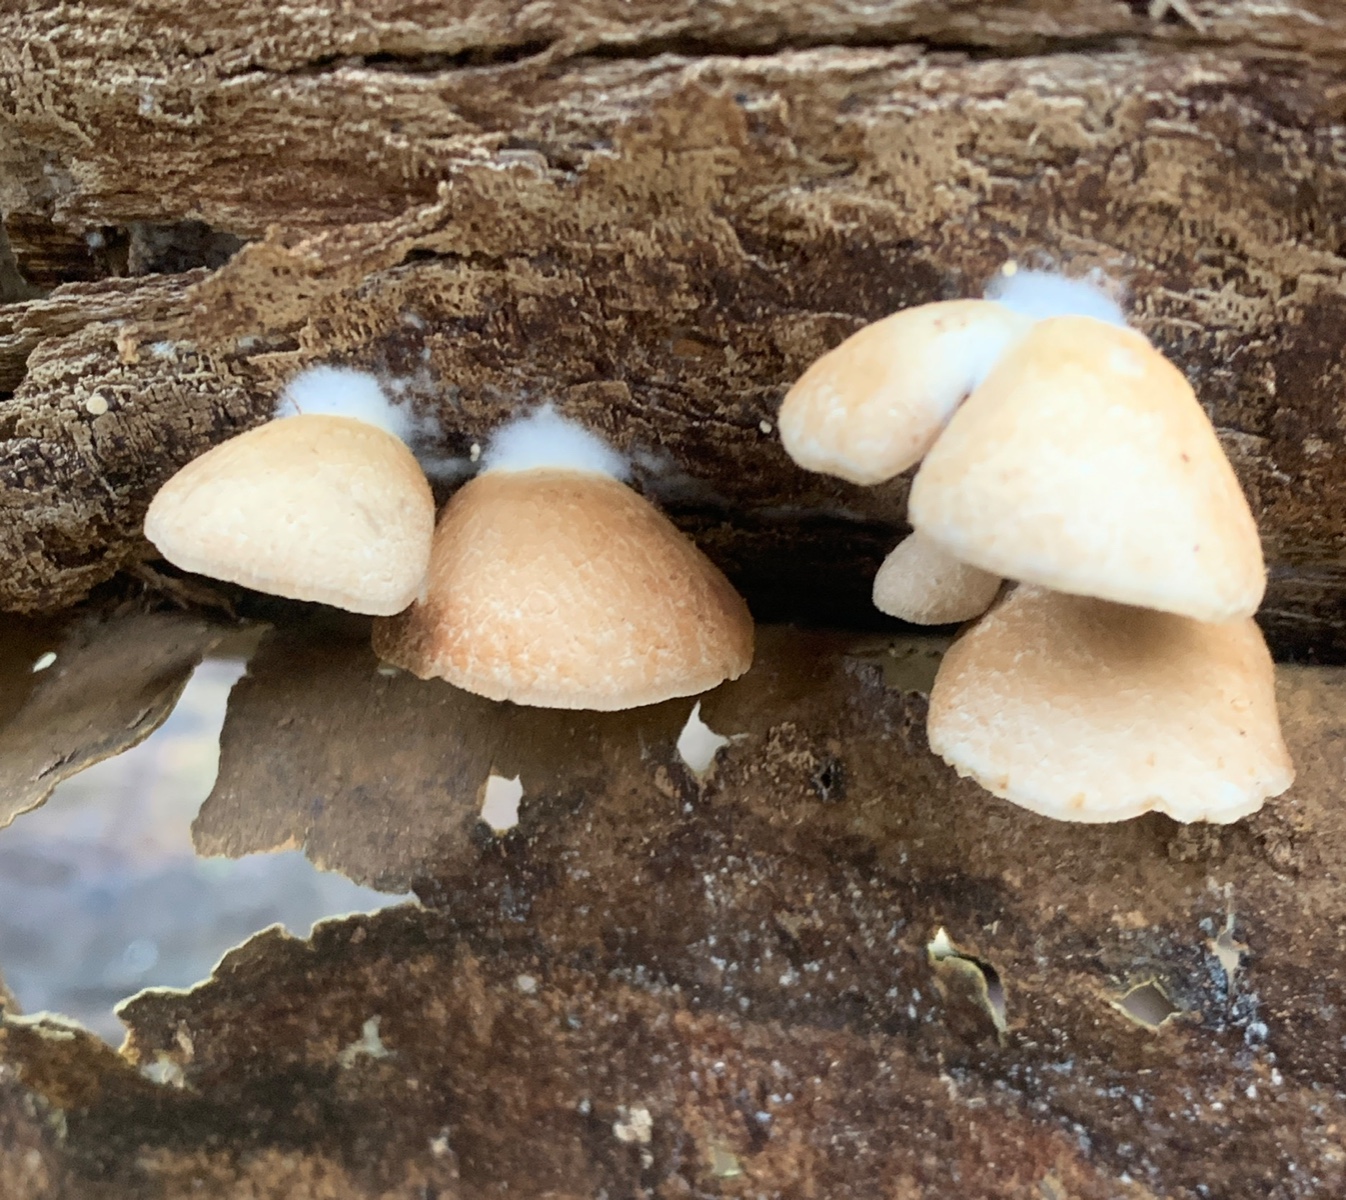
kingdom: Fungi
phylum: Basidiomycota
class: Agaricomycetes
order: Agaricales
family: Crepidotaceae
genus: Crepidotus
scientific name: Crepidotus mollis
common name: blød muslingesvamp
